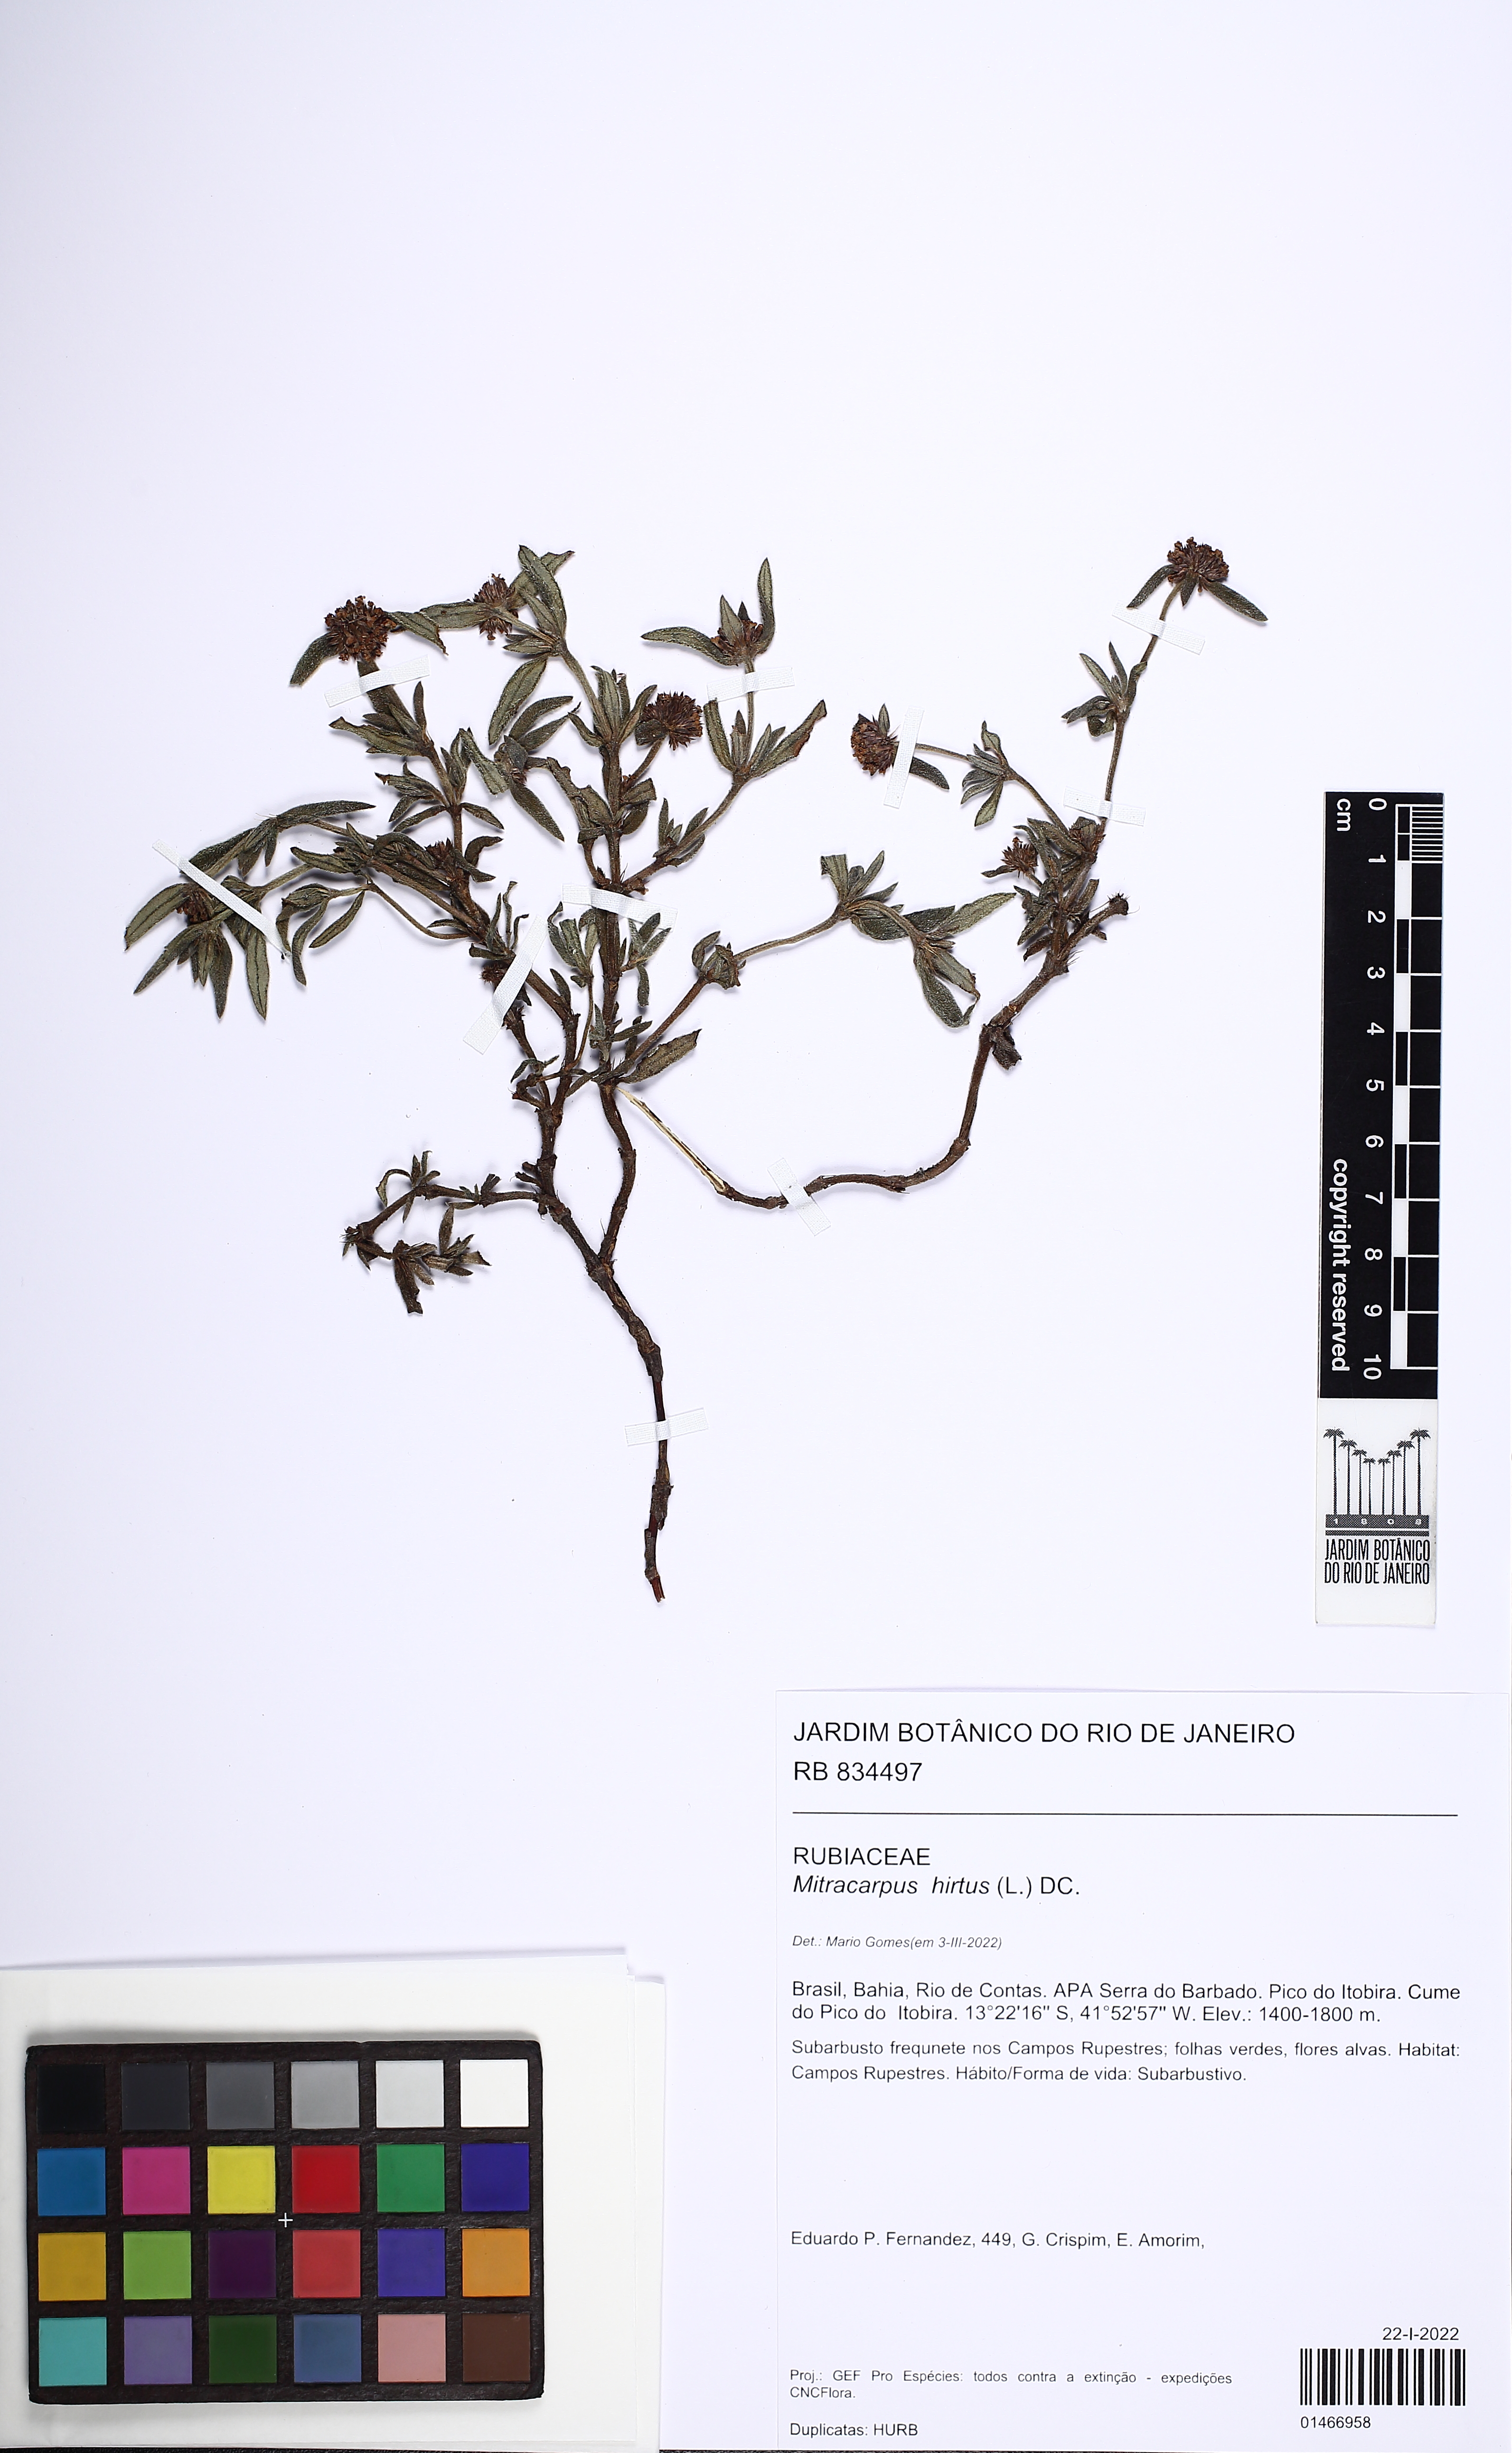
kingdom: Plantae
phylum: Tracheophyta
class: Magnoliopsida
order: Gentianales
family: Rubiaceae
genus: Mitracarpus
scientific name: Mitracarpus hirtus
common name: Tropical girdlepod
